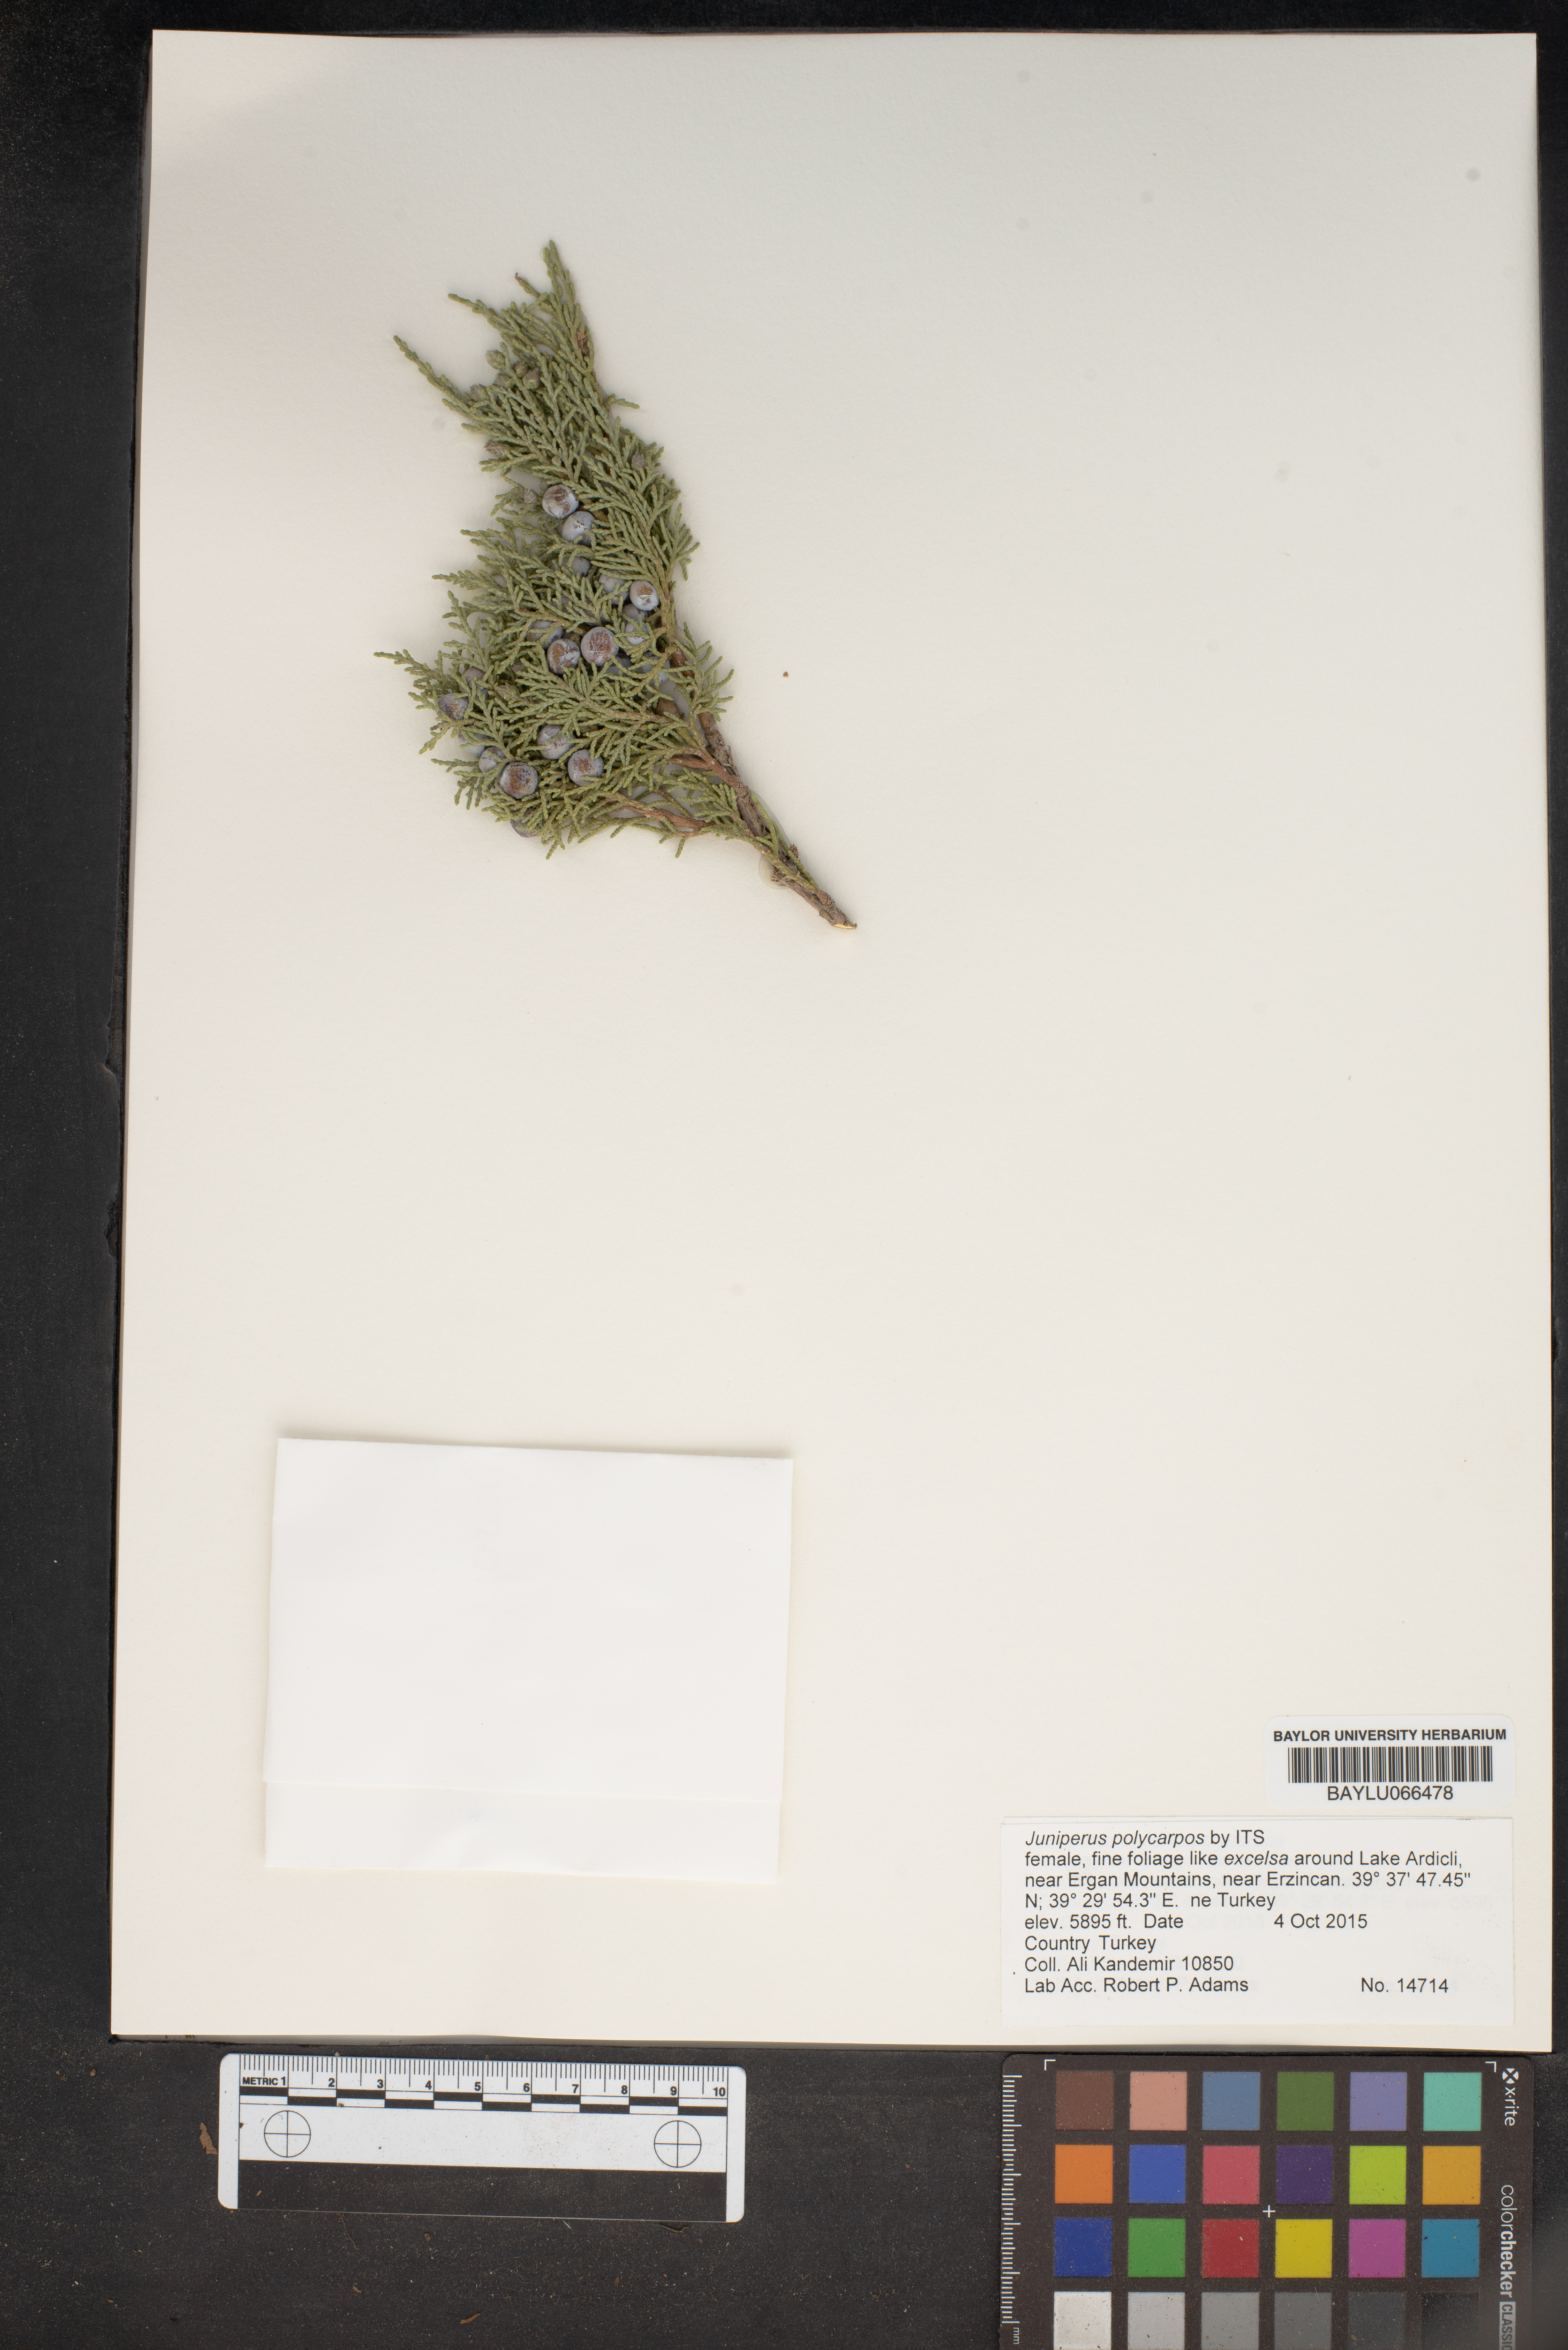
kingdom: Plantae
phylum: Tracheophyta
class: Pinopsida
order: Pinales
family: Cupressaceae
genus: Juniperus
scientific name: Juniperus excelsa
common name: Crimean juniper
